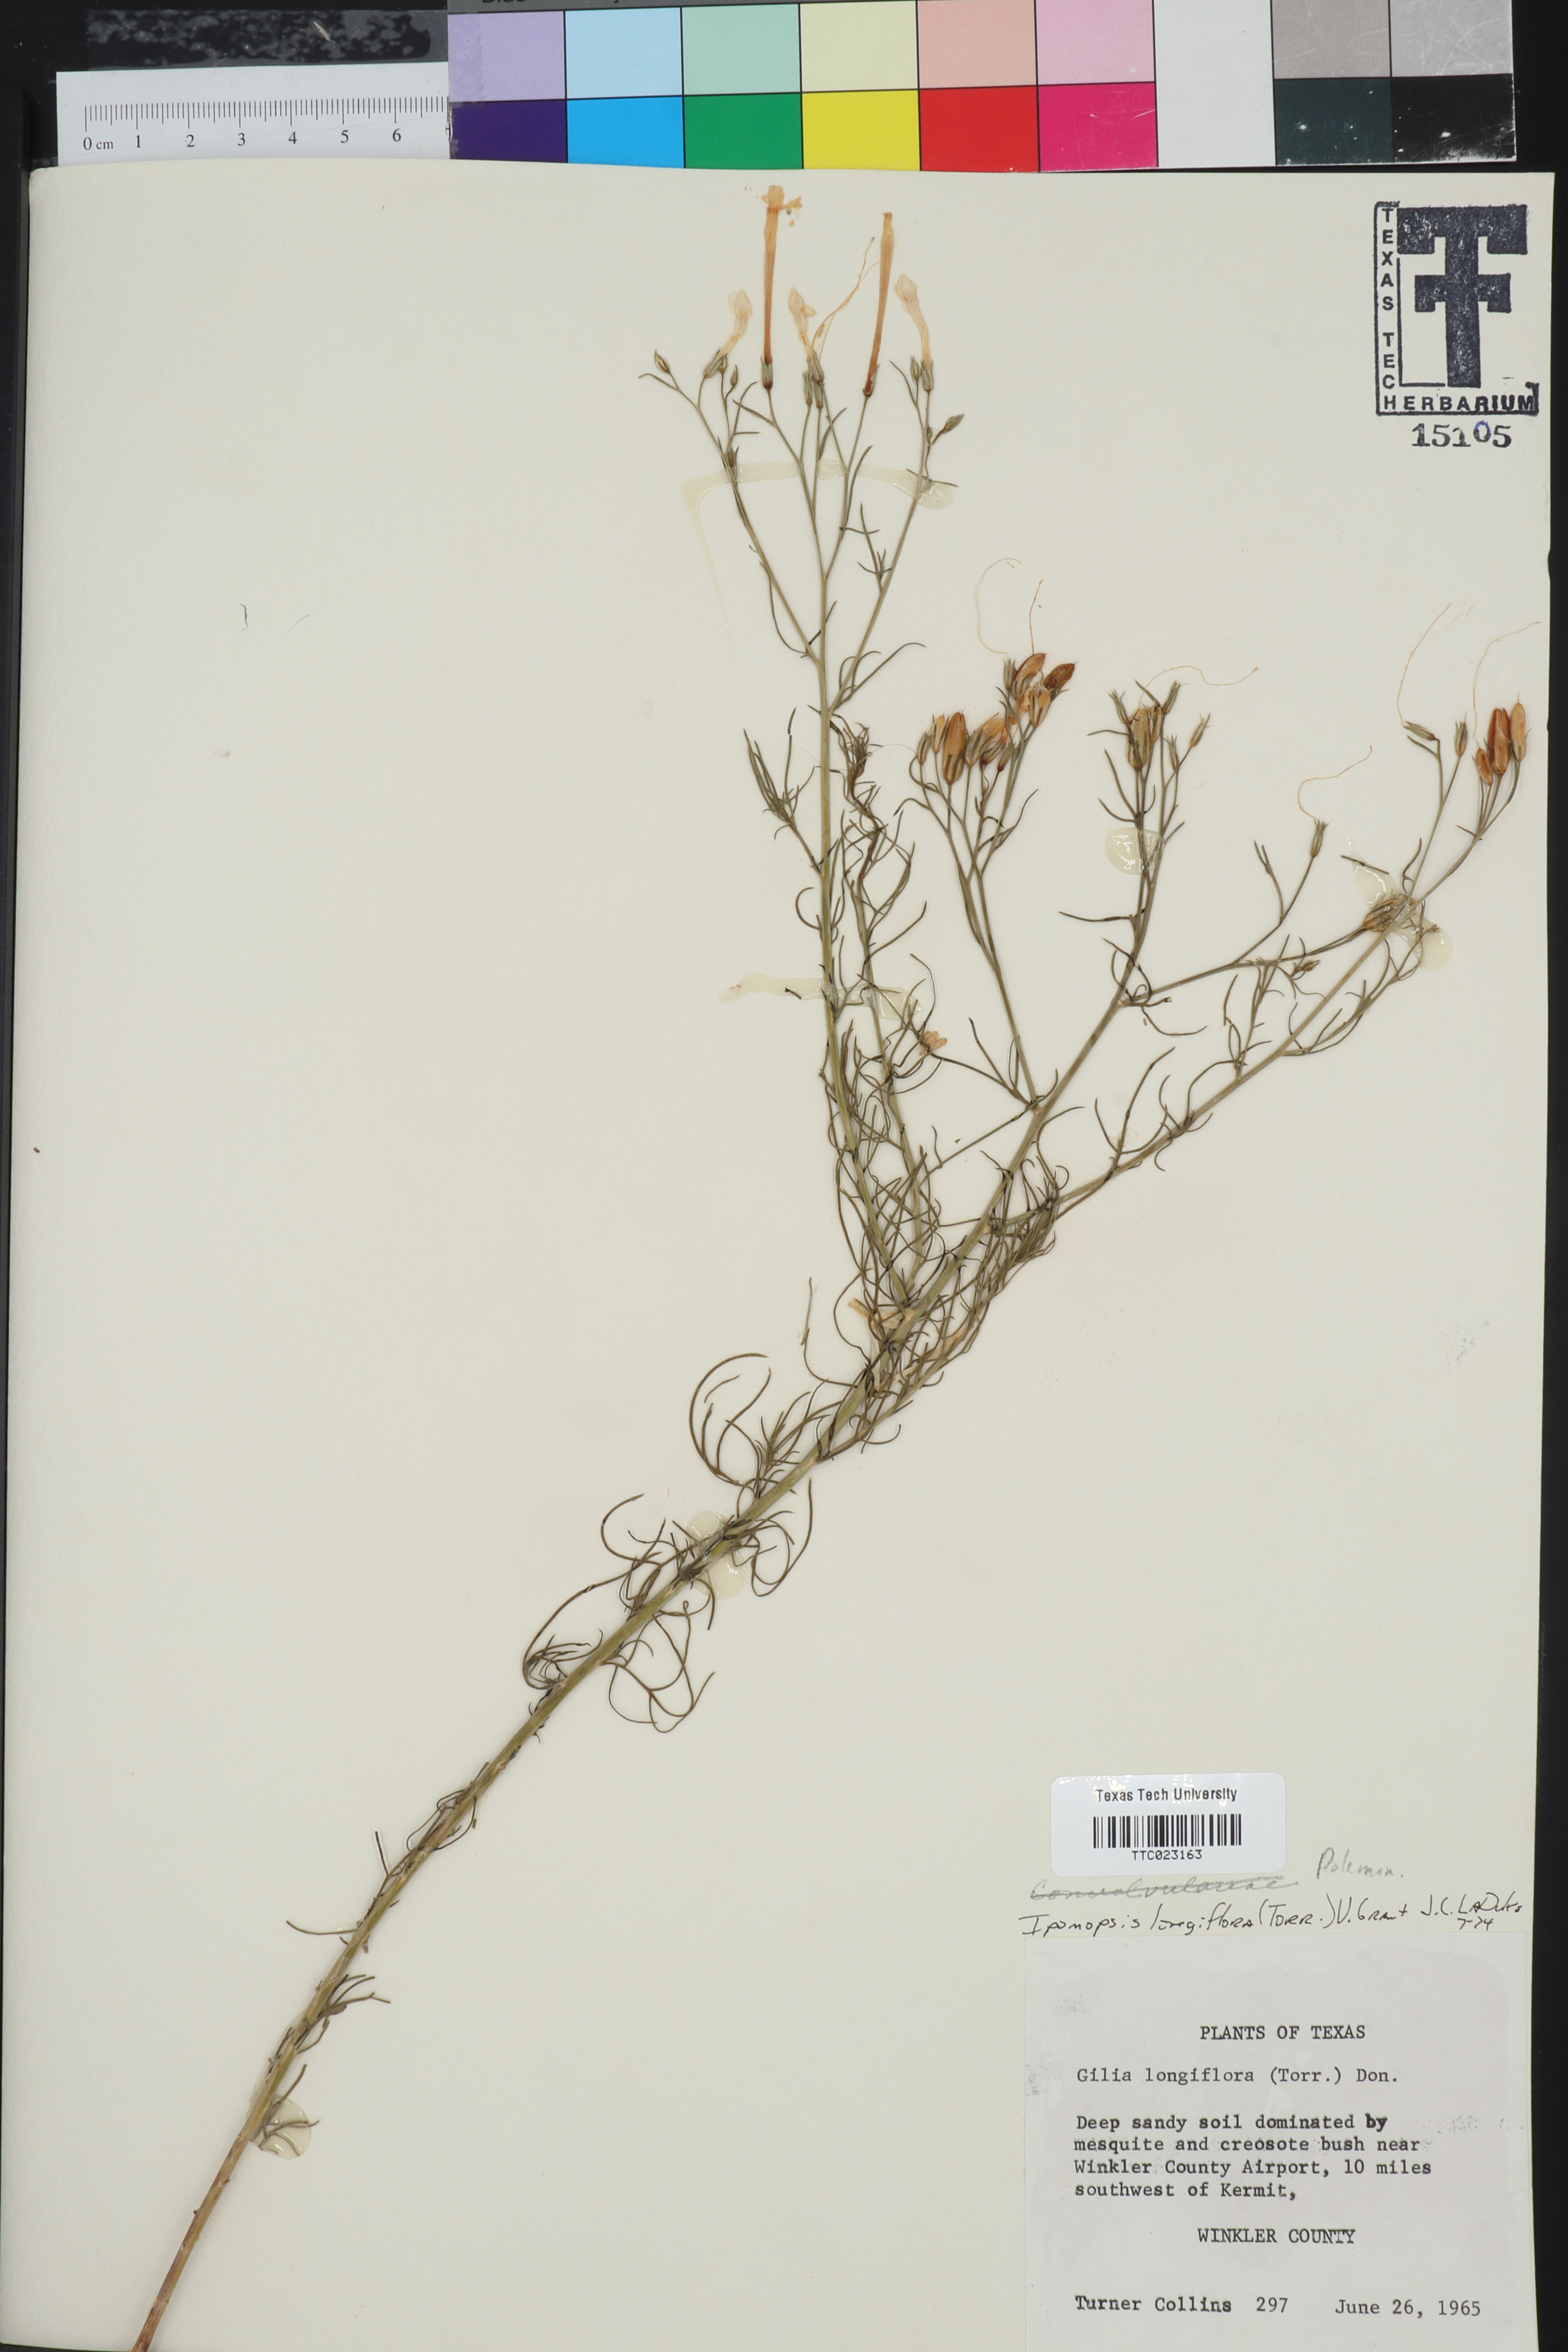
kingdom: Plantae
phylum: Tracheophyta
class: Magnoliopsida
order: Ericales
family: Polemoniaceae
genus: Ipomopsis
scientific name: Ipomopsis longiflora
